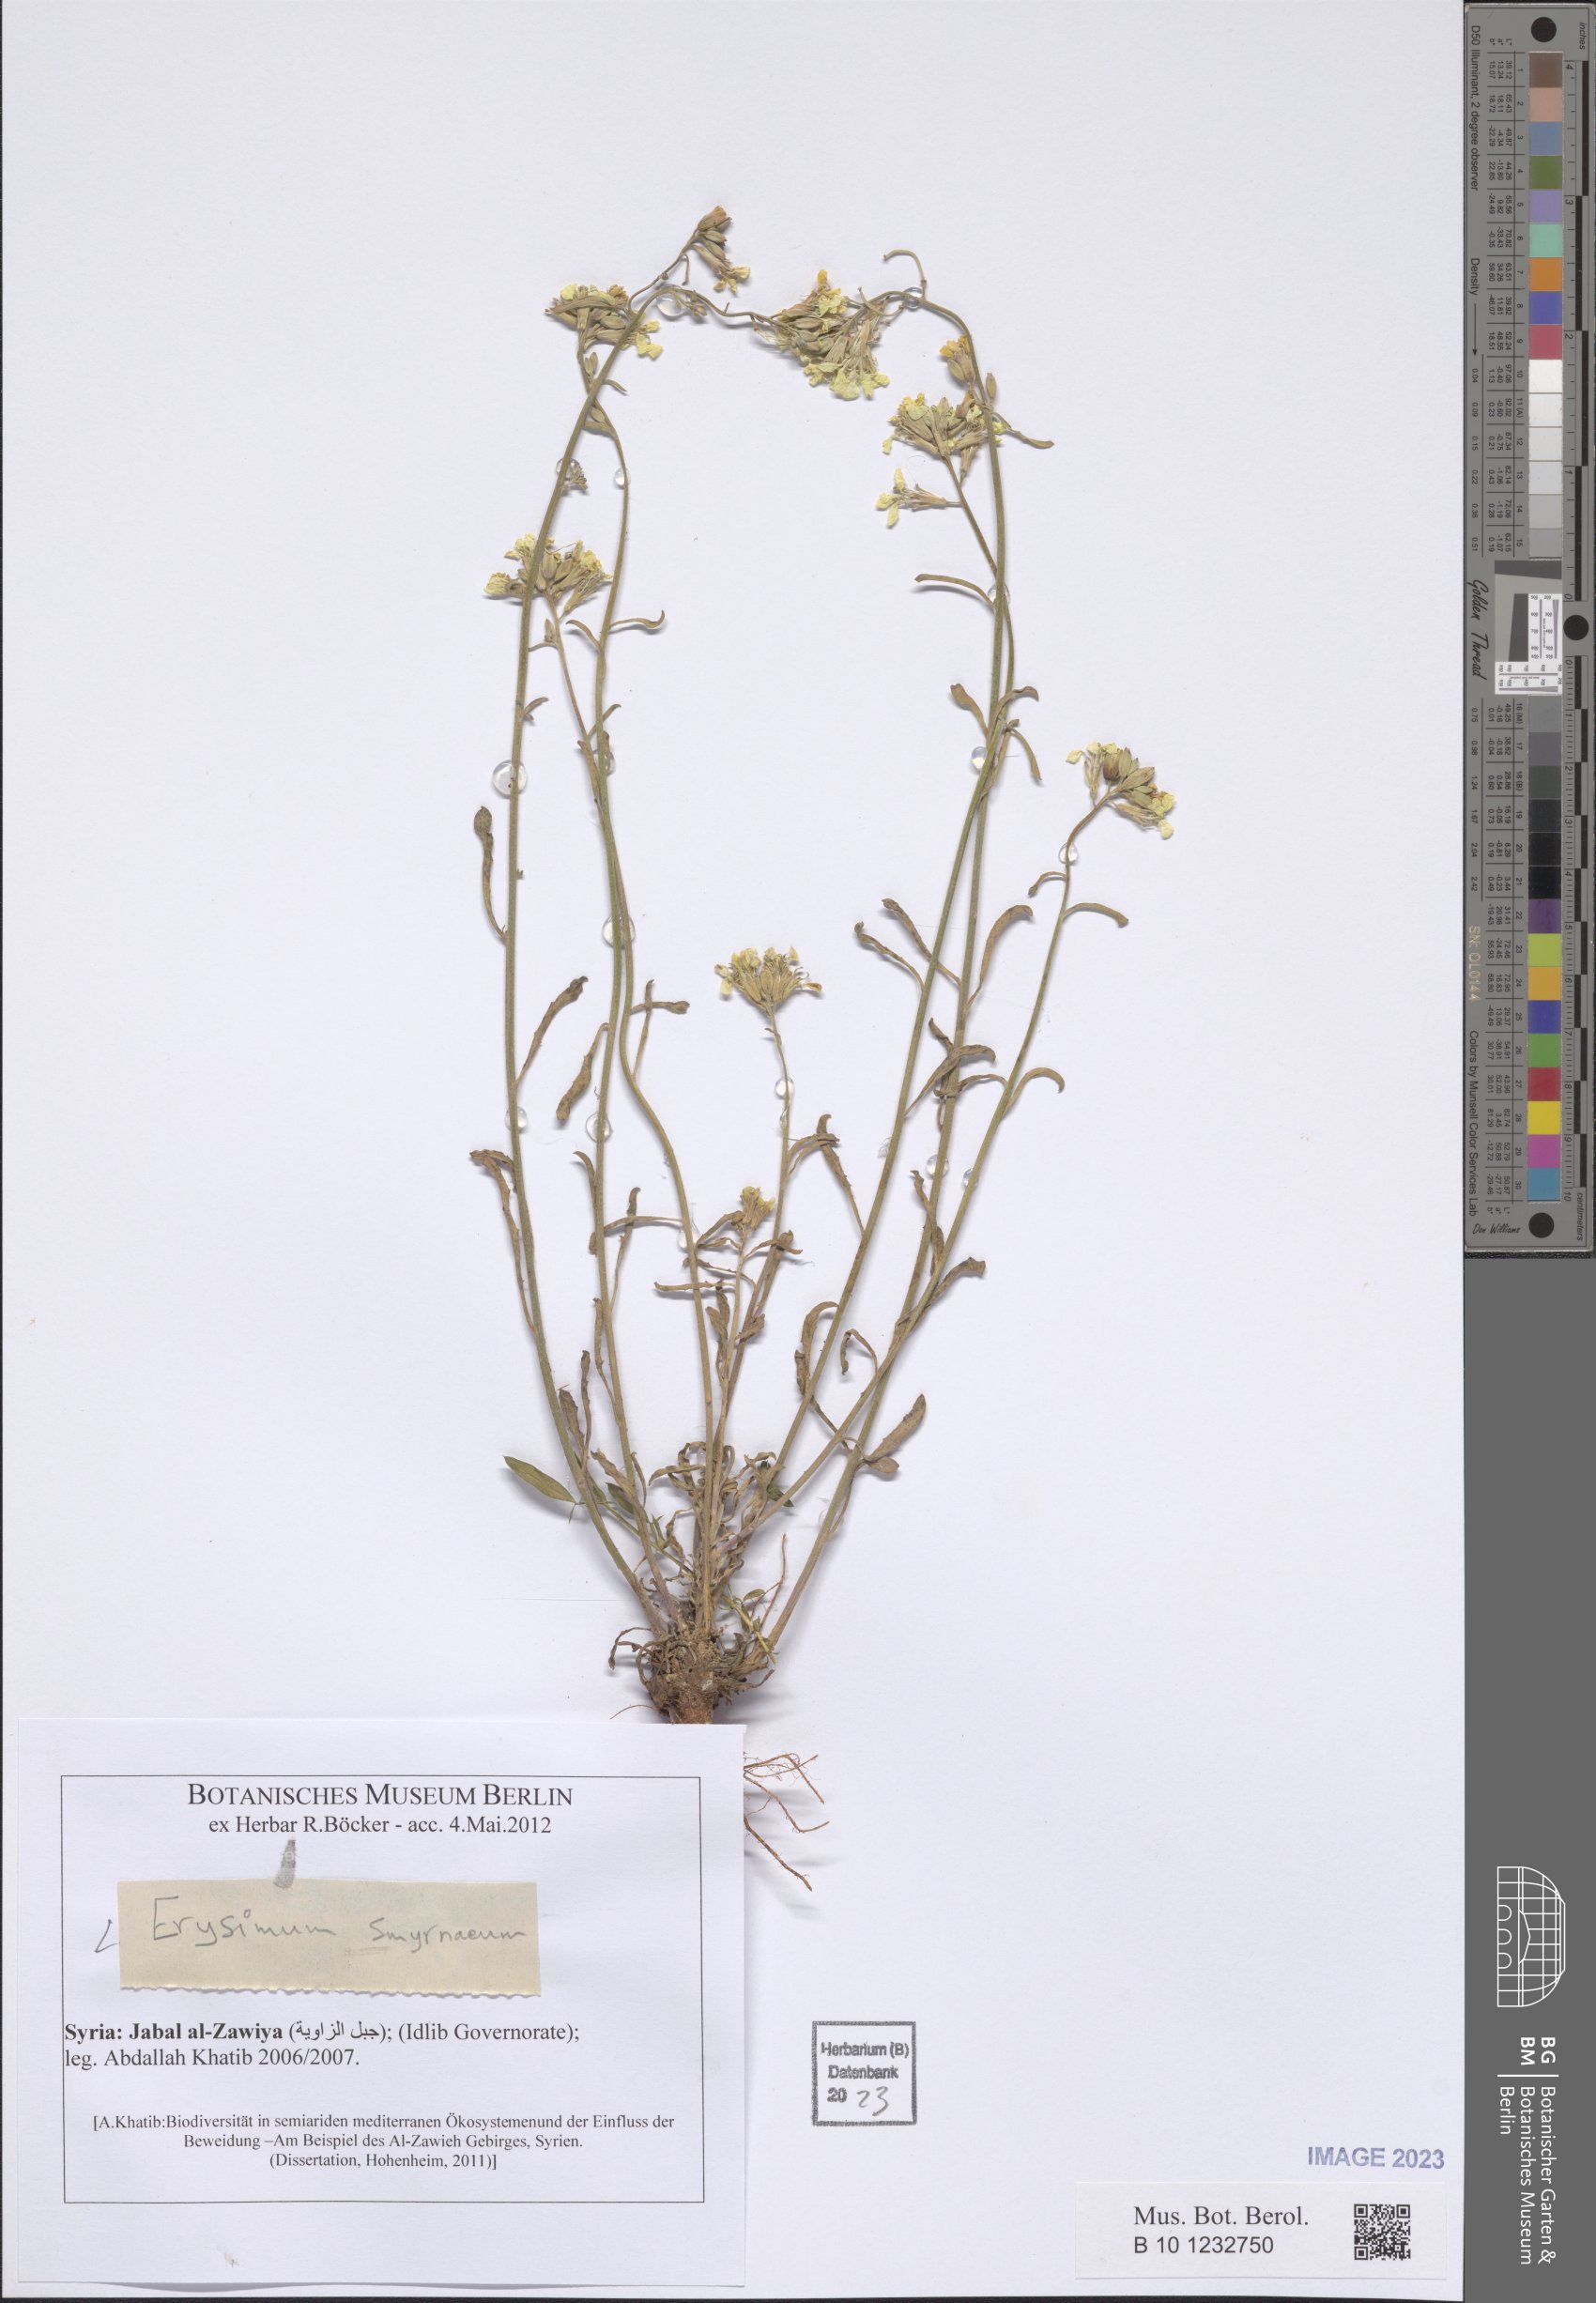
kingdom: Plantae
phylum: Tracheophyta
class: Magnoliopsida
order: Brassicales
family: Brassicaceae
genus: Erysimum
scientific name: Erysimum smyrnaeum
